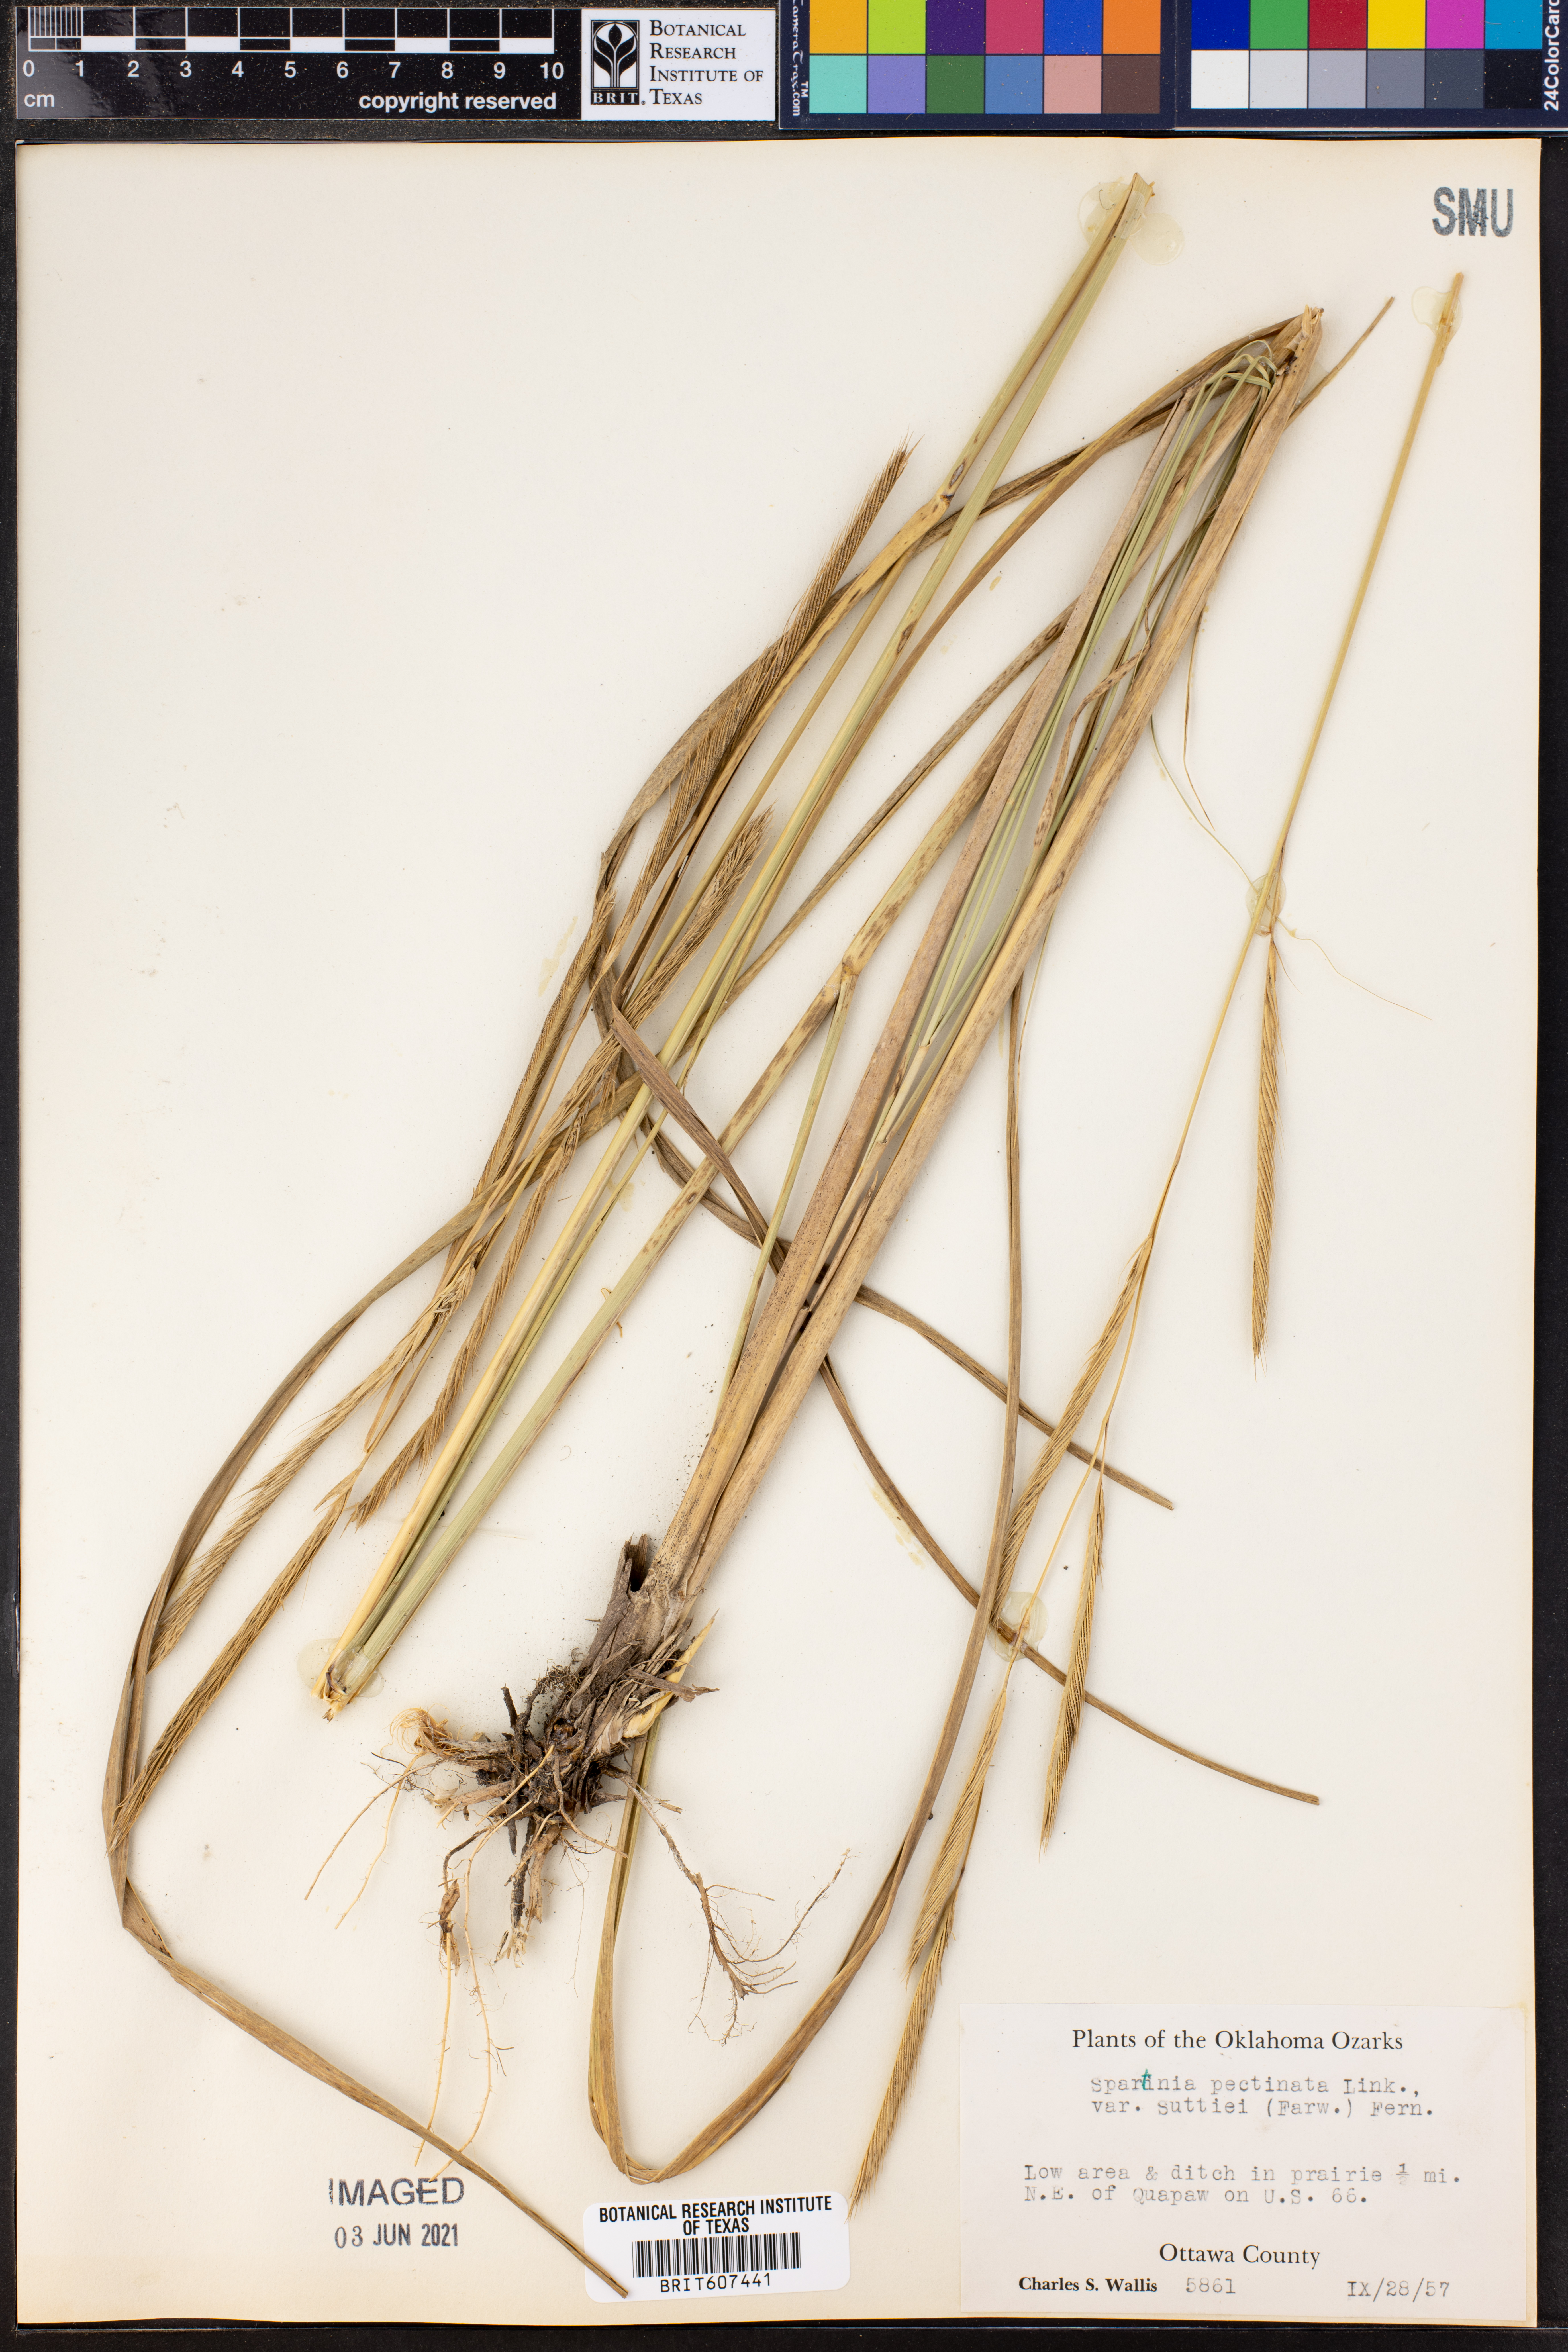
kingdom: Plantae
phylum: Tracheophyta
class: Liliopsida
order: Poales
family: Poaceae
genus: Sporobolus
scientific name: Sporobolus michauxianus
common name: Freshwater cordgrass
